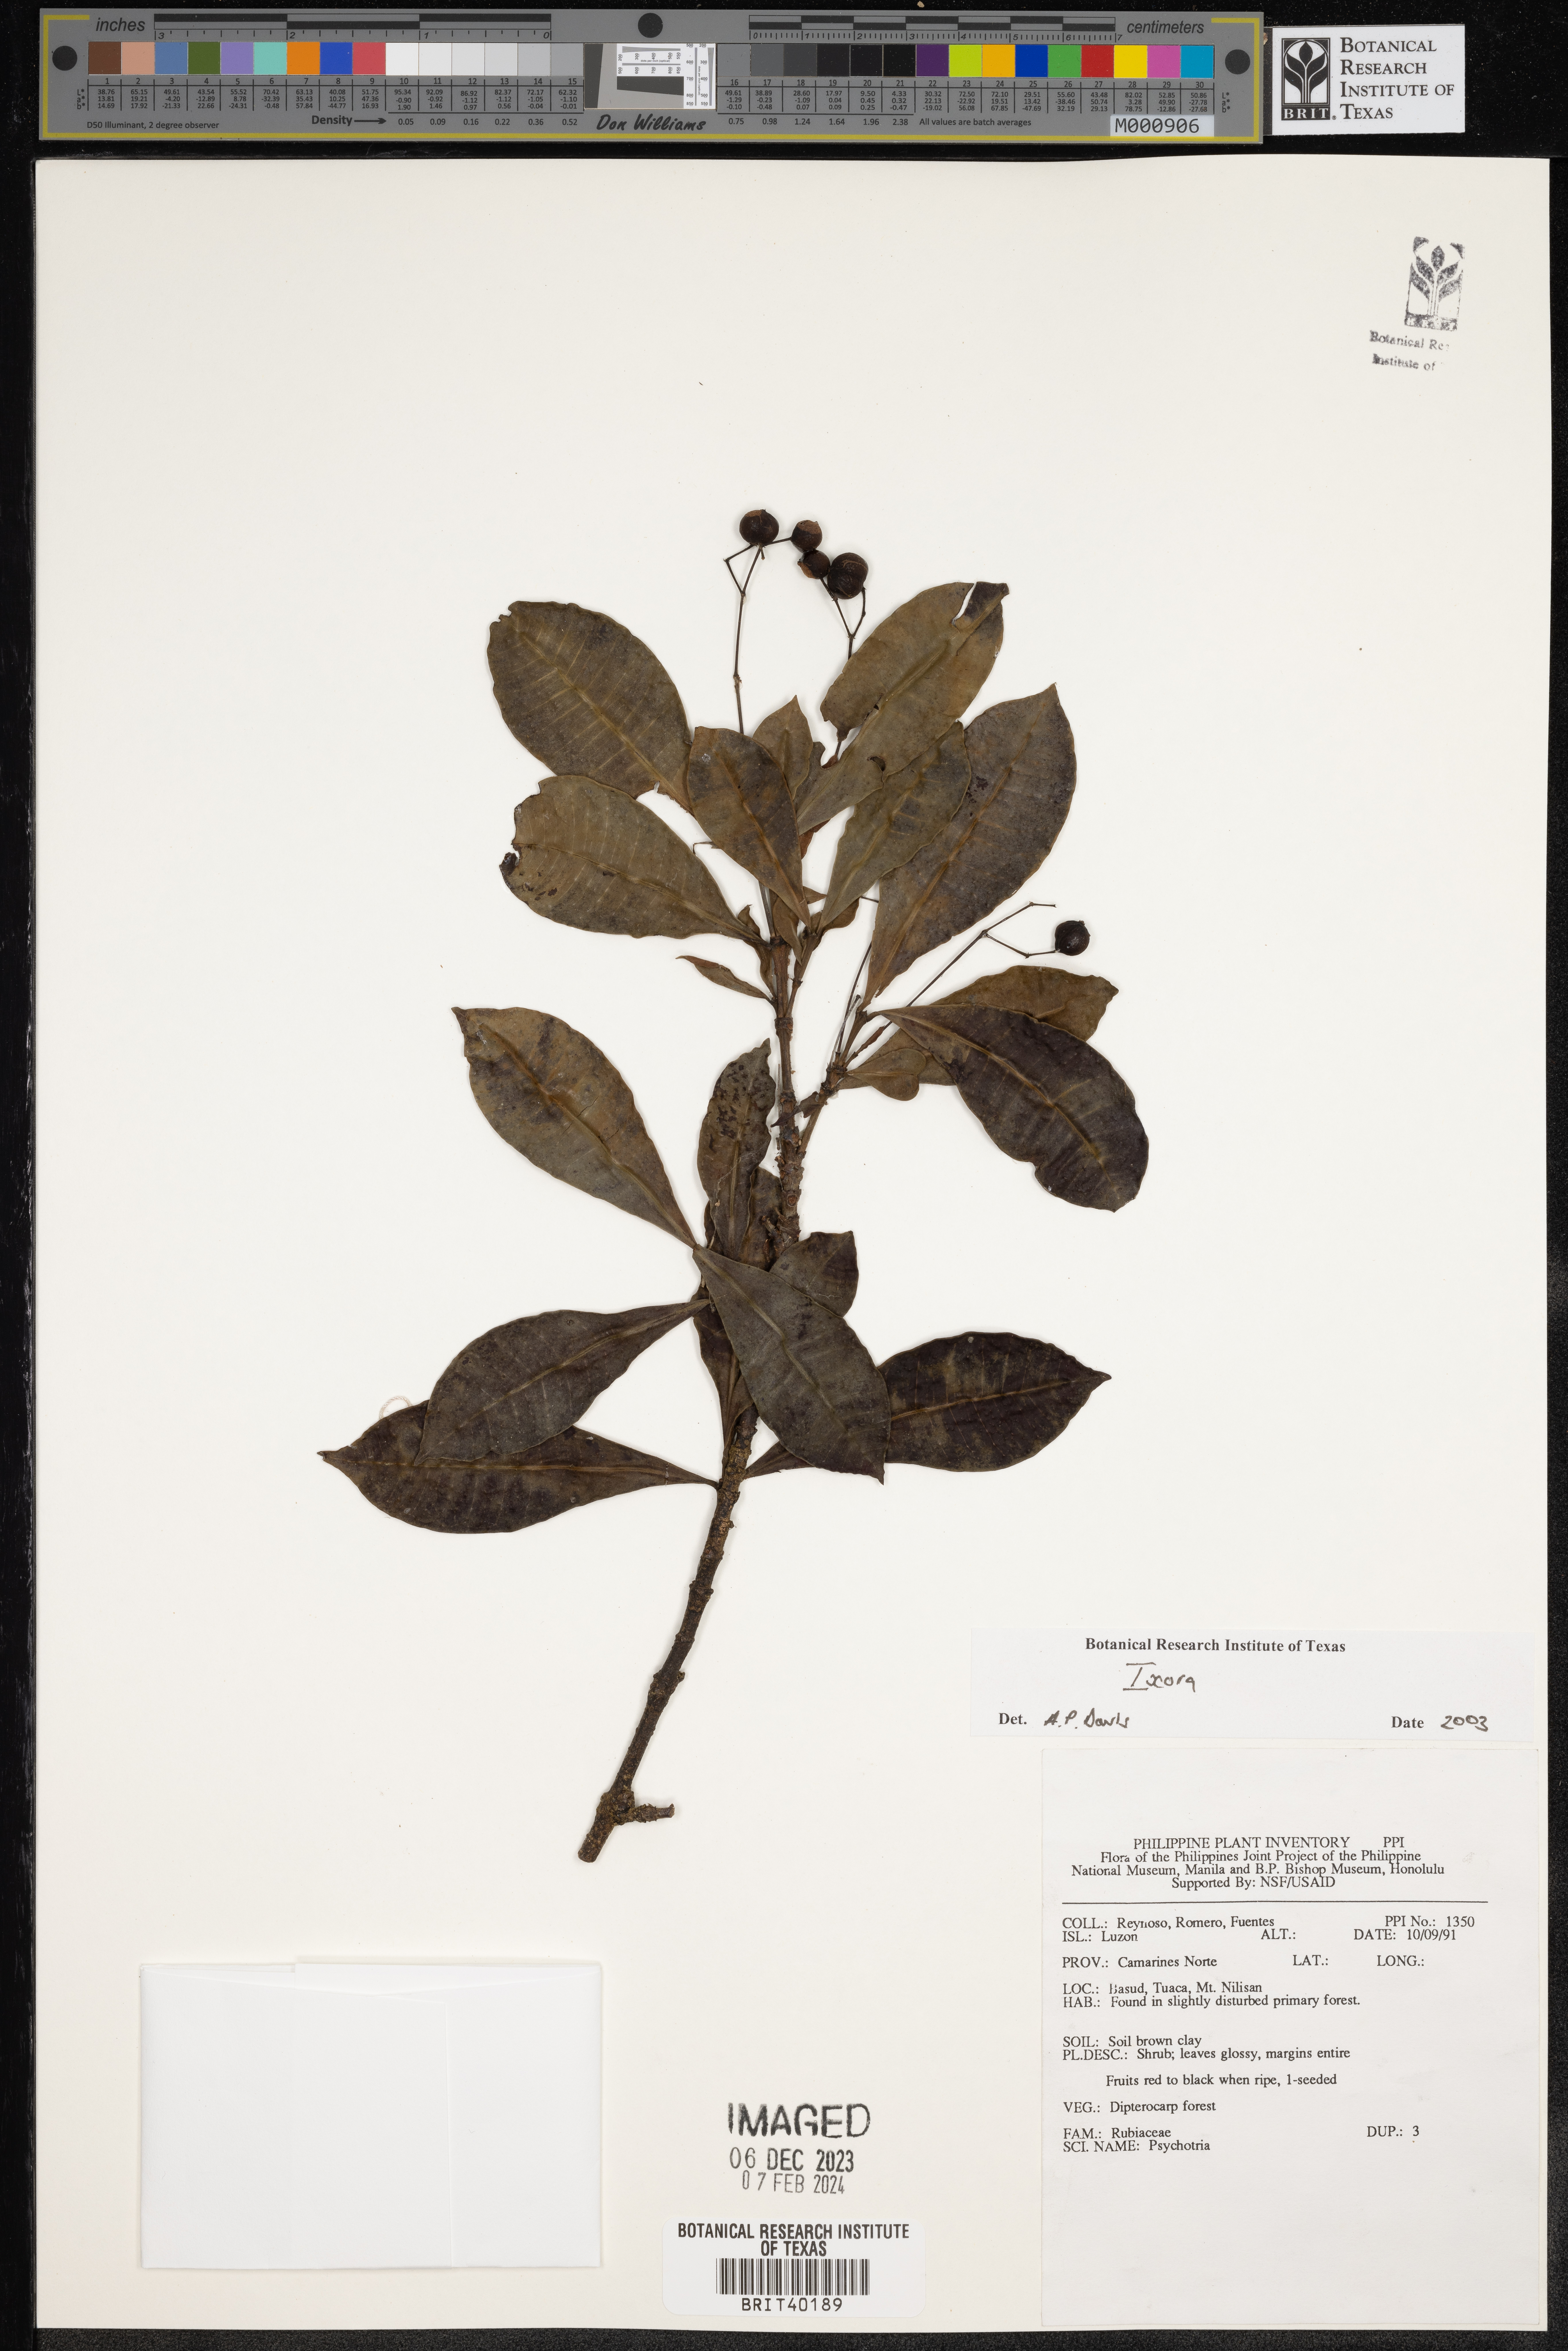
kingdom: Plantae
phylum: Tracheophyta
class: Magnoliopsida
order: Gentianales
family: Rubiaceae
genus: Ixora
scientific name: Ixora
